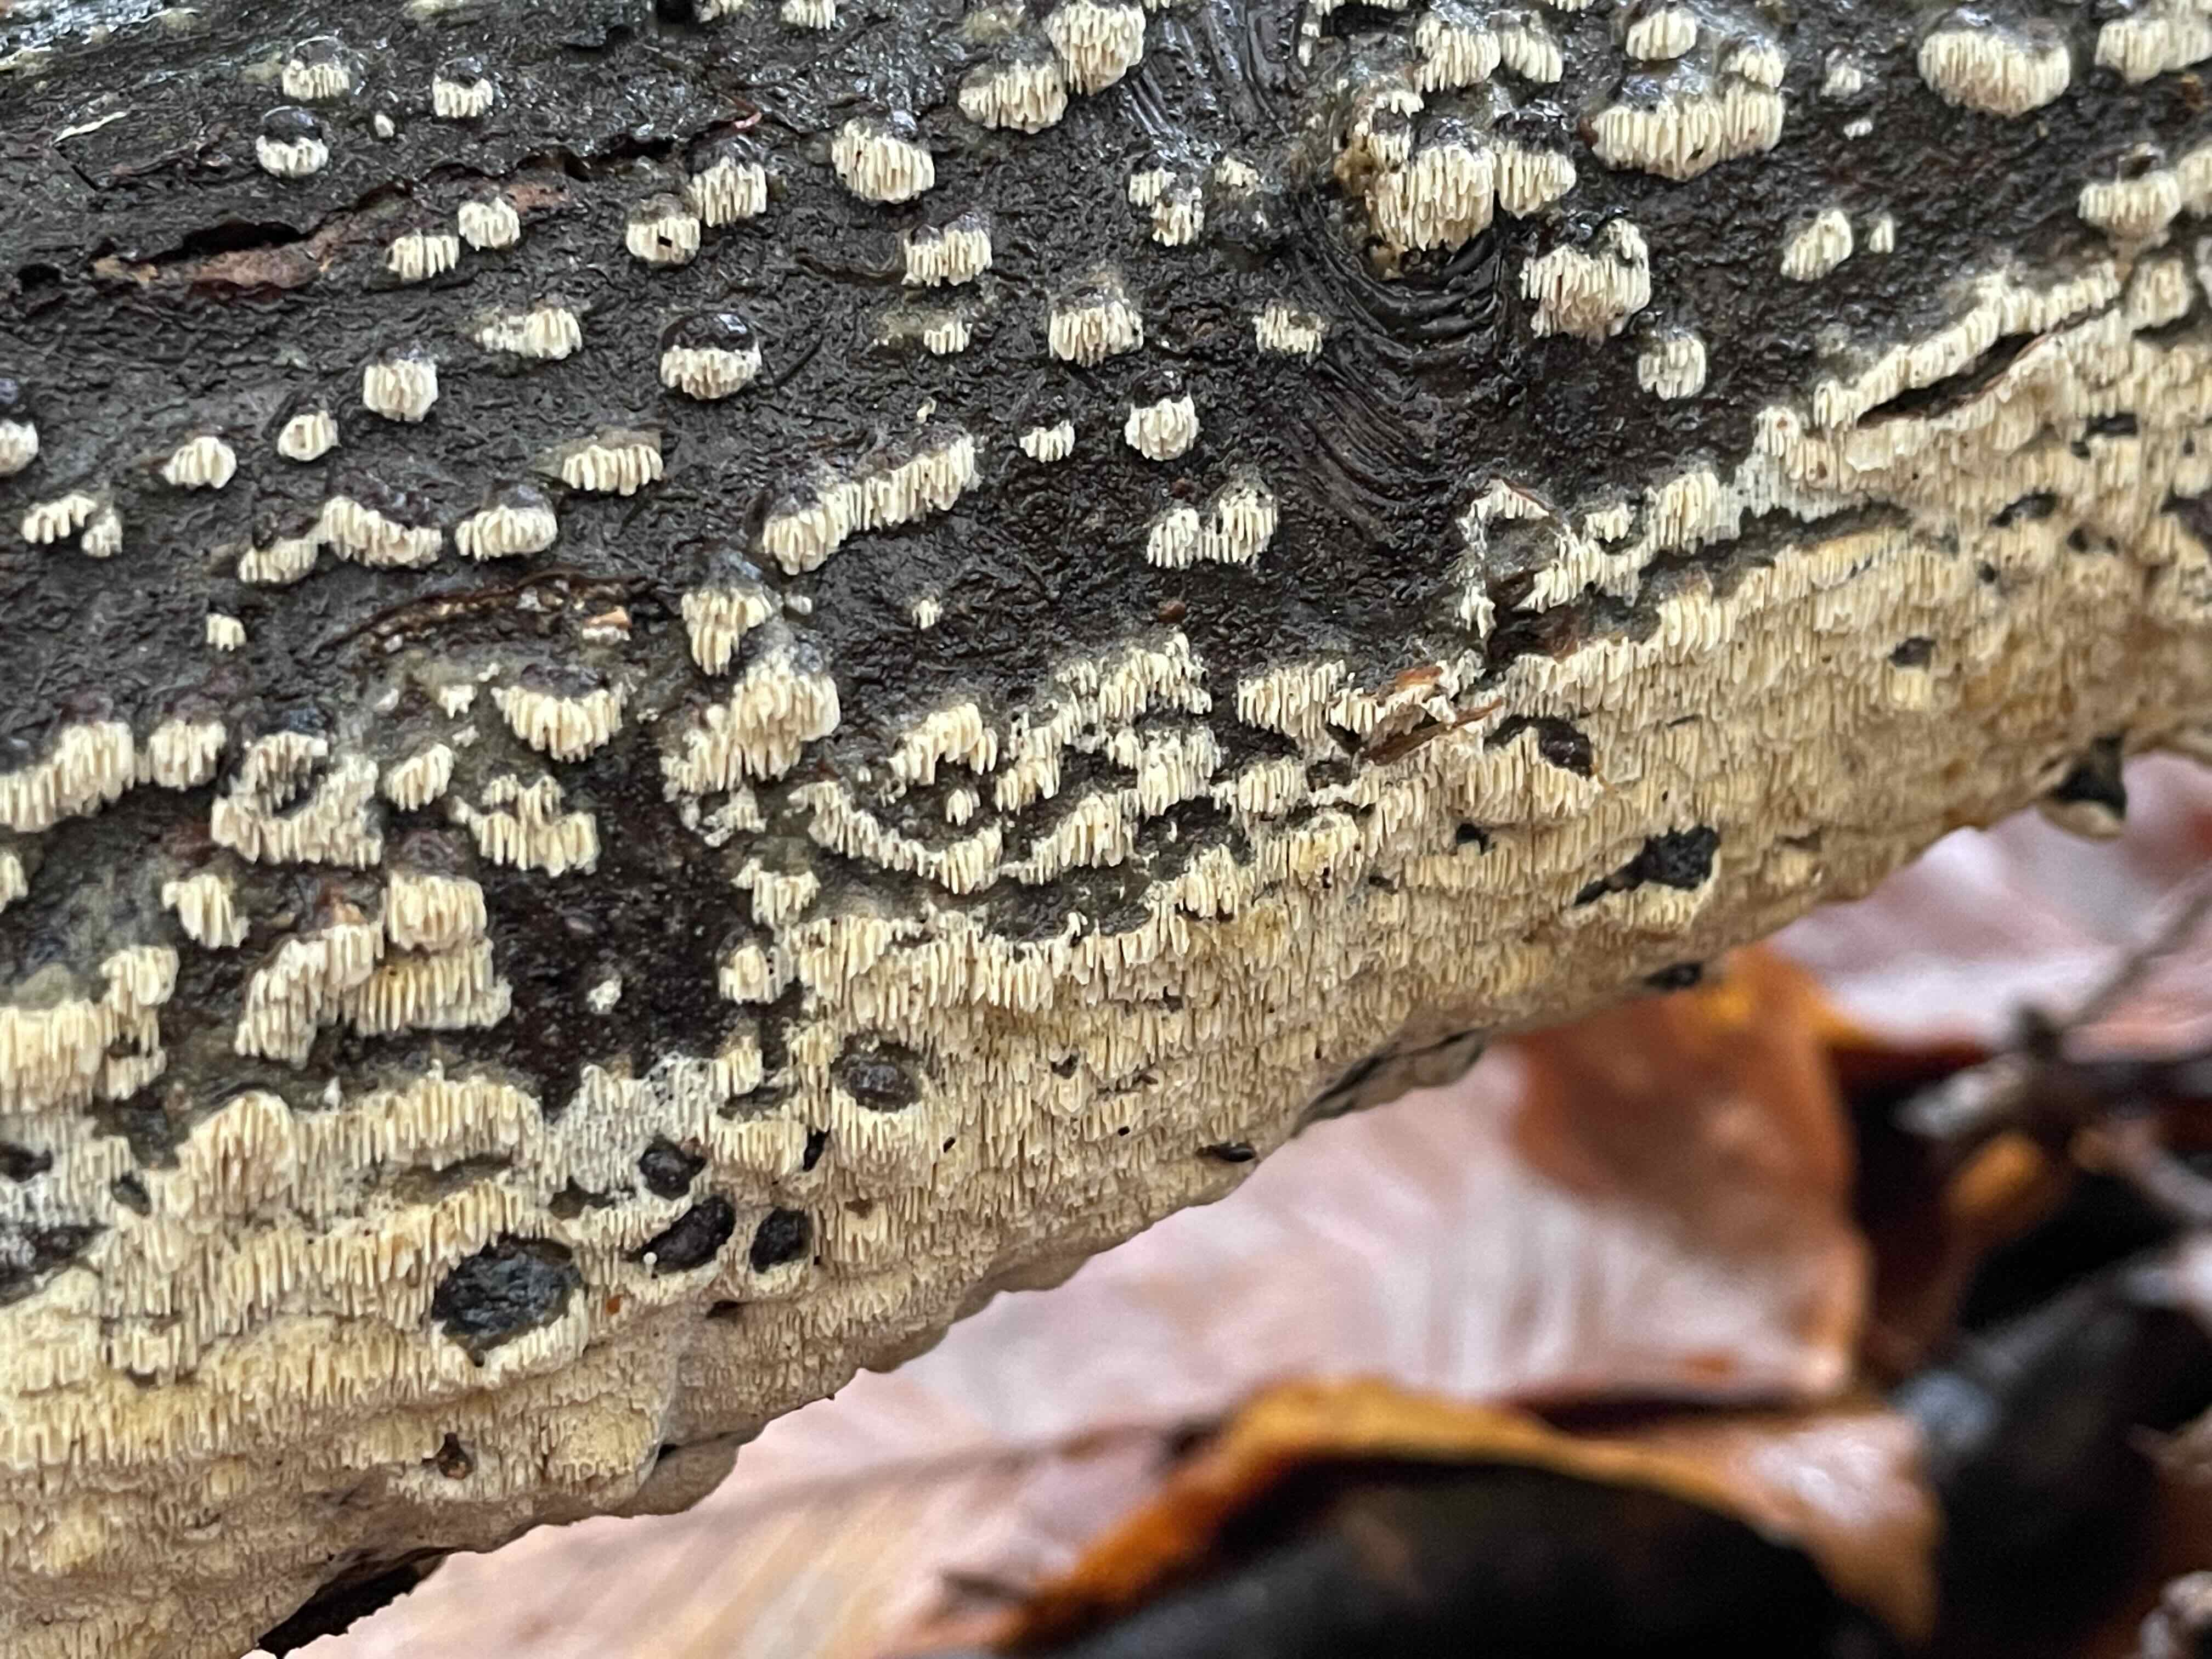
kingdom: Fungi
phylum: Basidiomycota
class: Agaricomycetes
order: Hymenochaetales
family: Schizoporaceae
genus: Schizopora
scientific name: Schizopora paradoxa
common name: hvid tandsvamp
